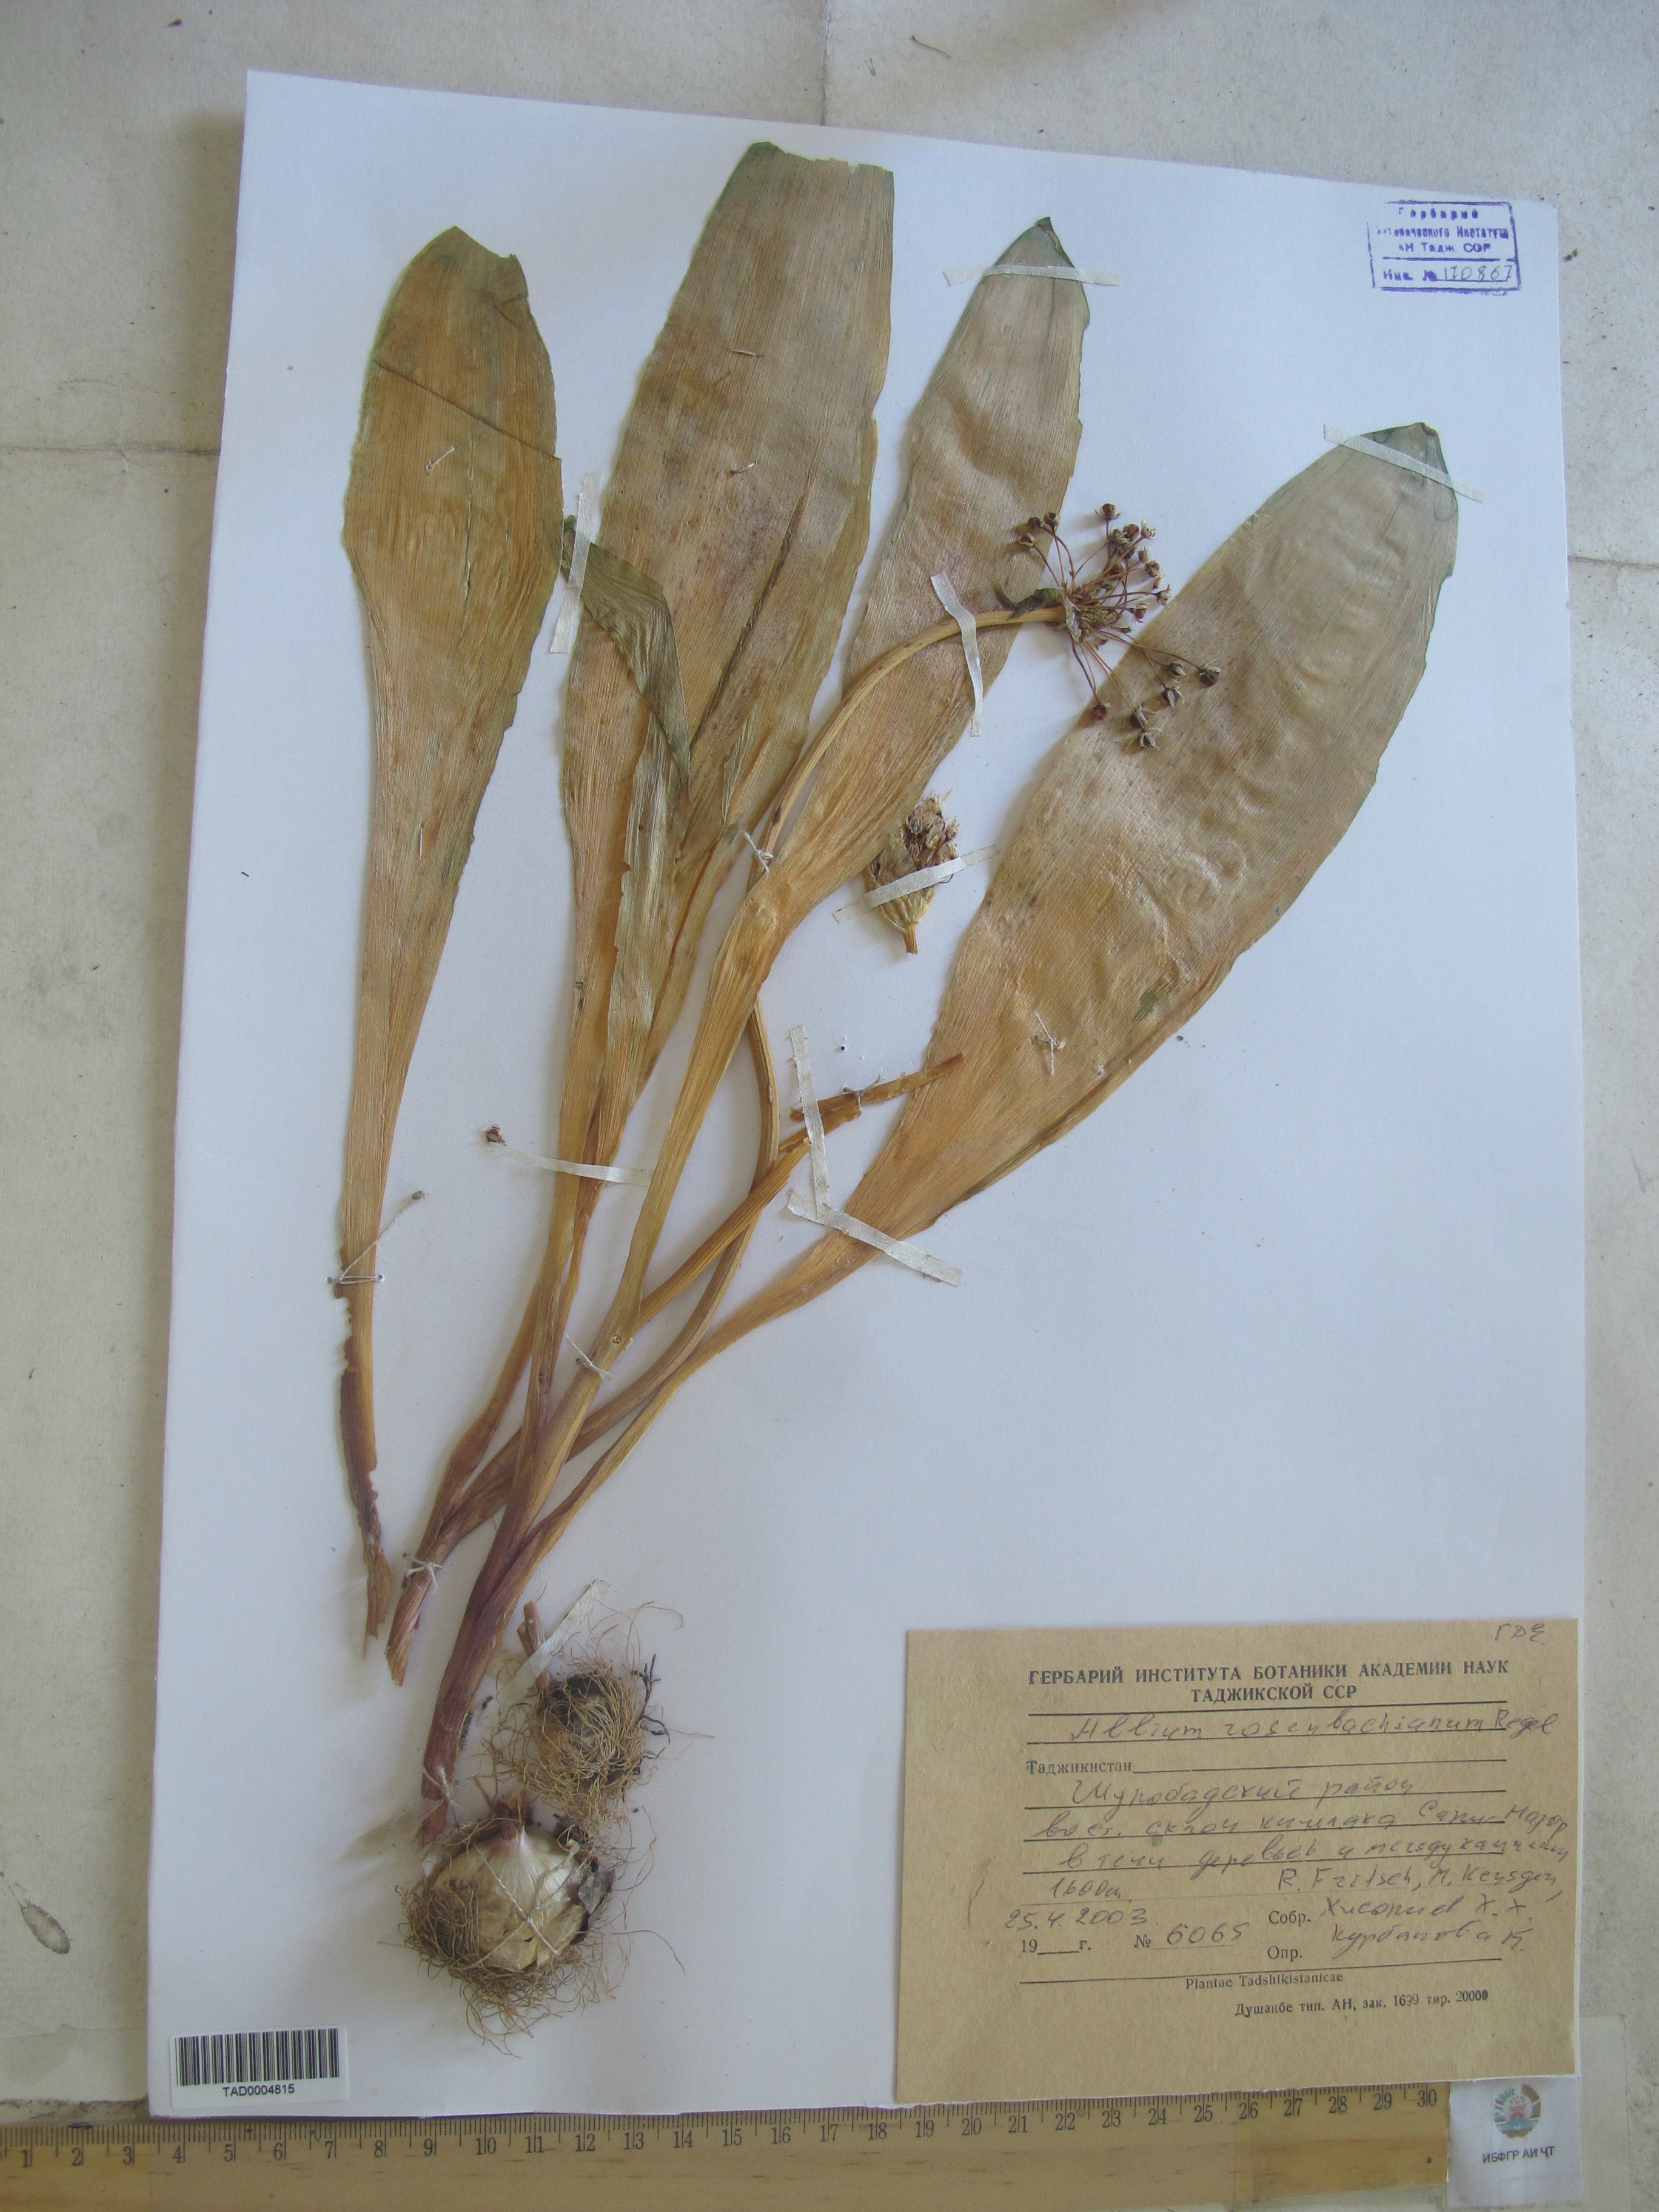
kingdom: Plantae
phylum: Tracheophyta
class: Liliopsida
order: Asparagales
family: Amaryllidaceae
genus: Allium
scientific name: Allium
